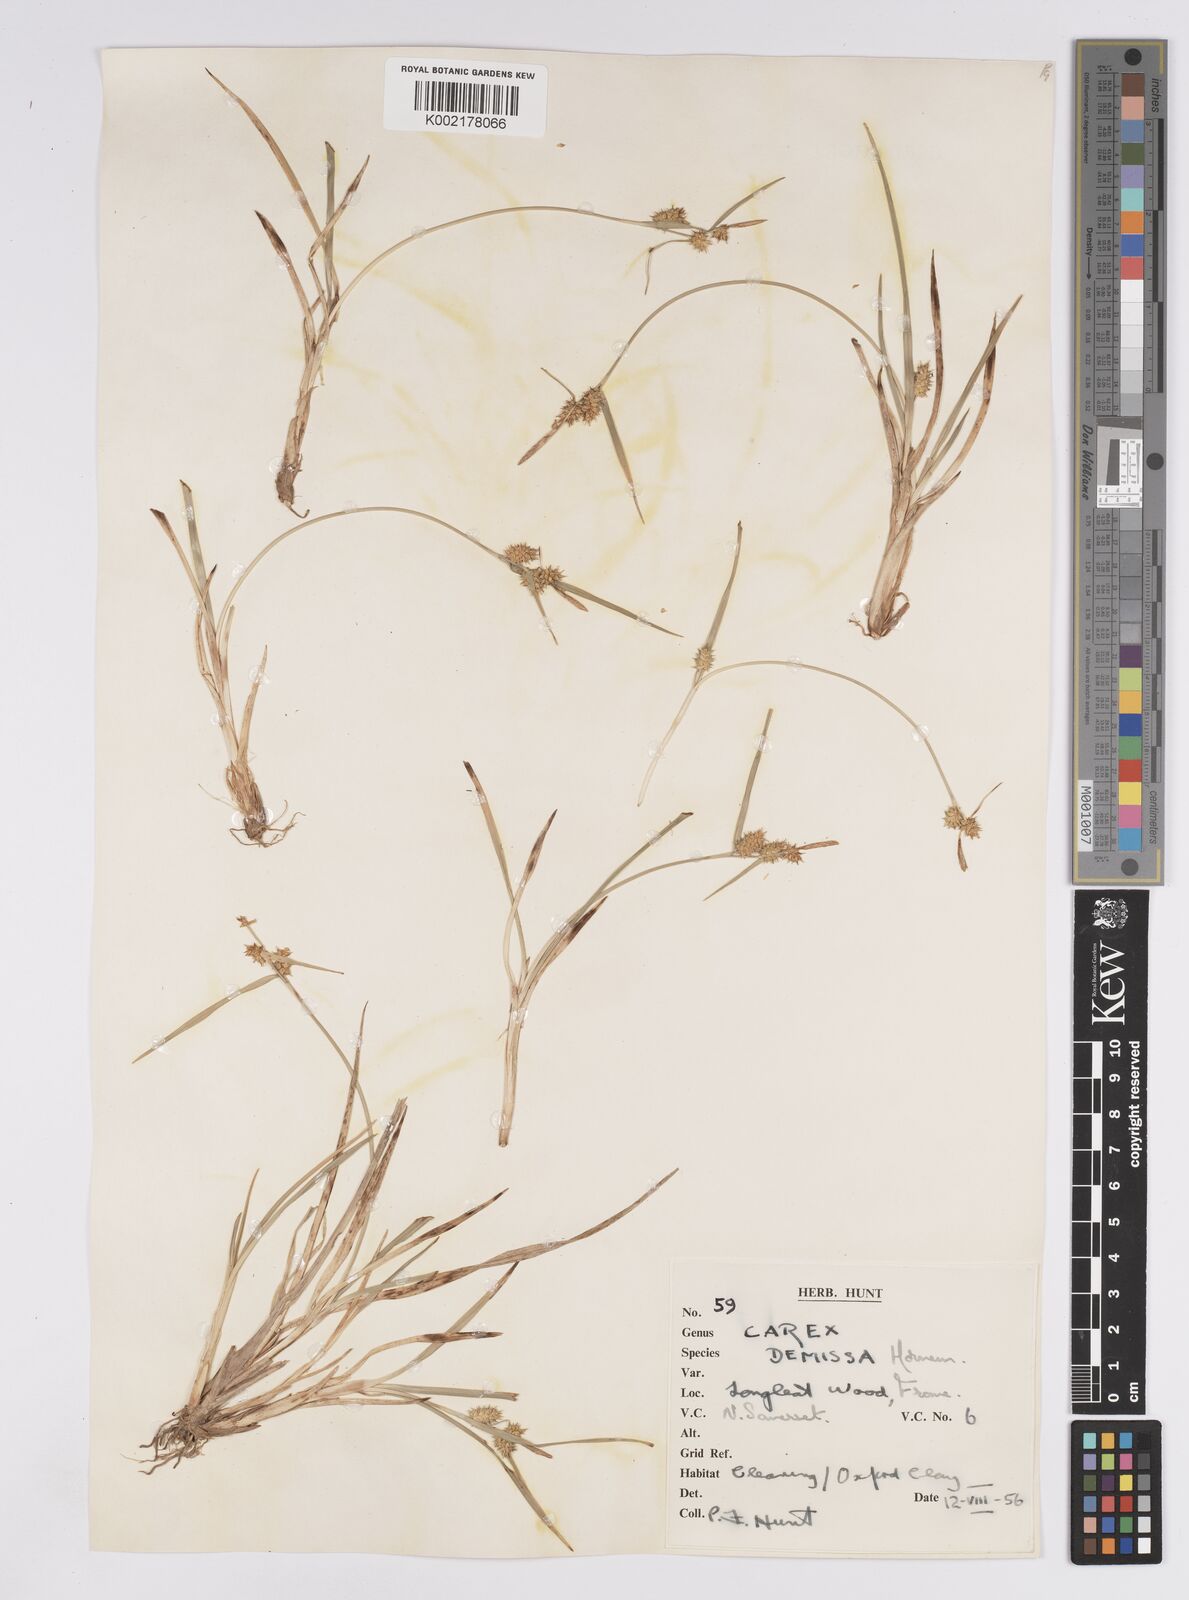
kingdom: Plantae
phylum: Tracheophyta
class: Liliopsida
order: Poales
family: Cyperaceae
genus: Carex
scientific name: Carex demissa
